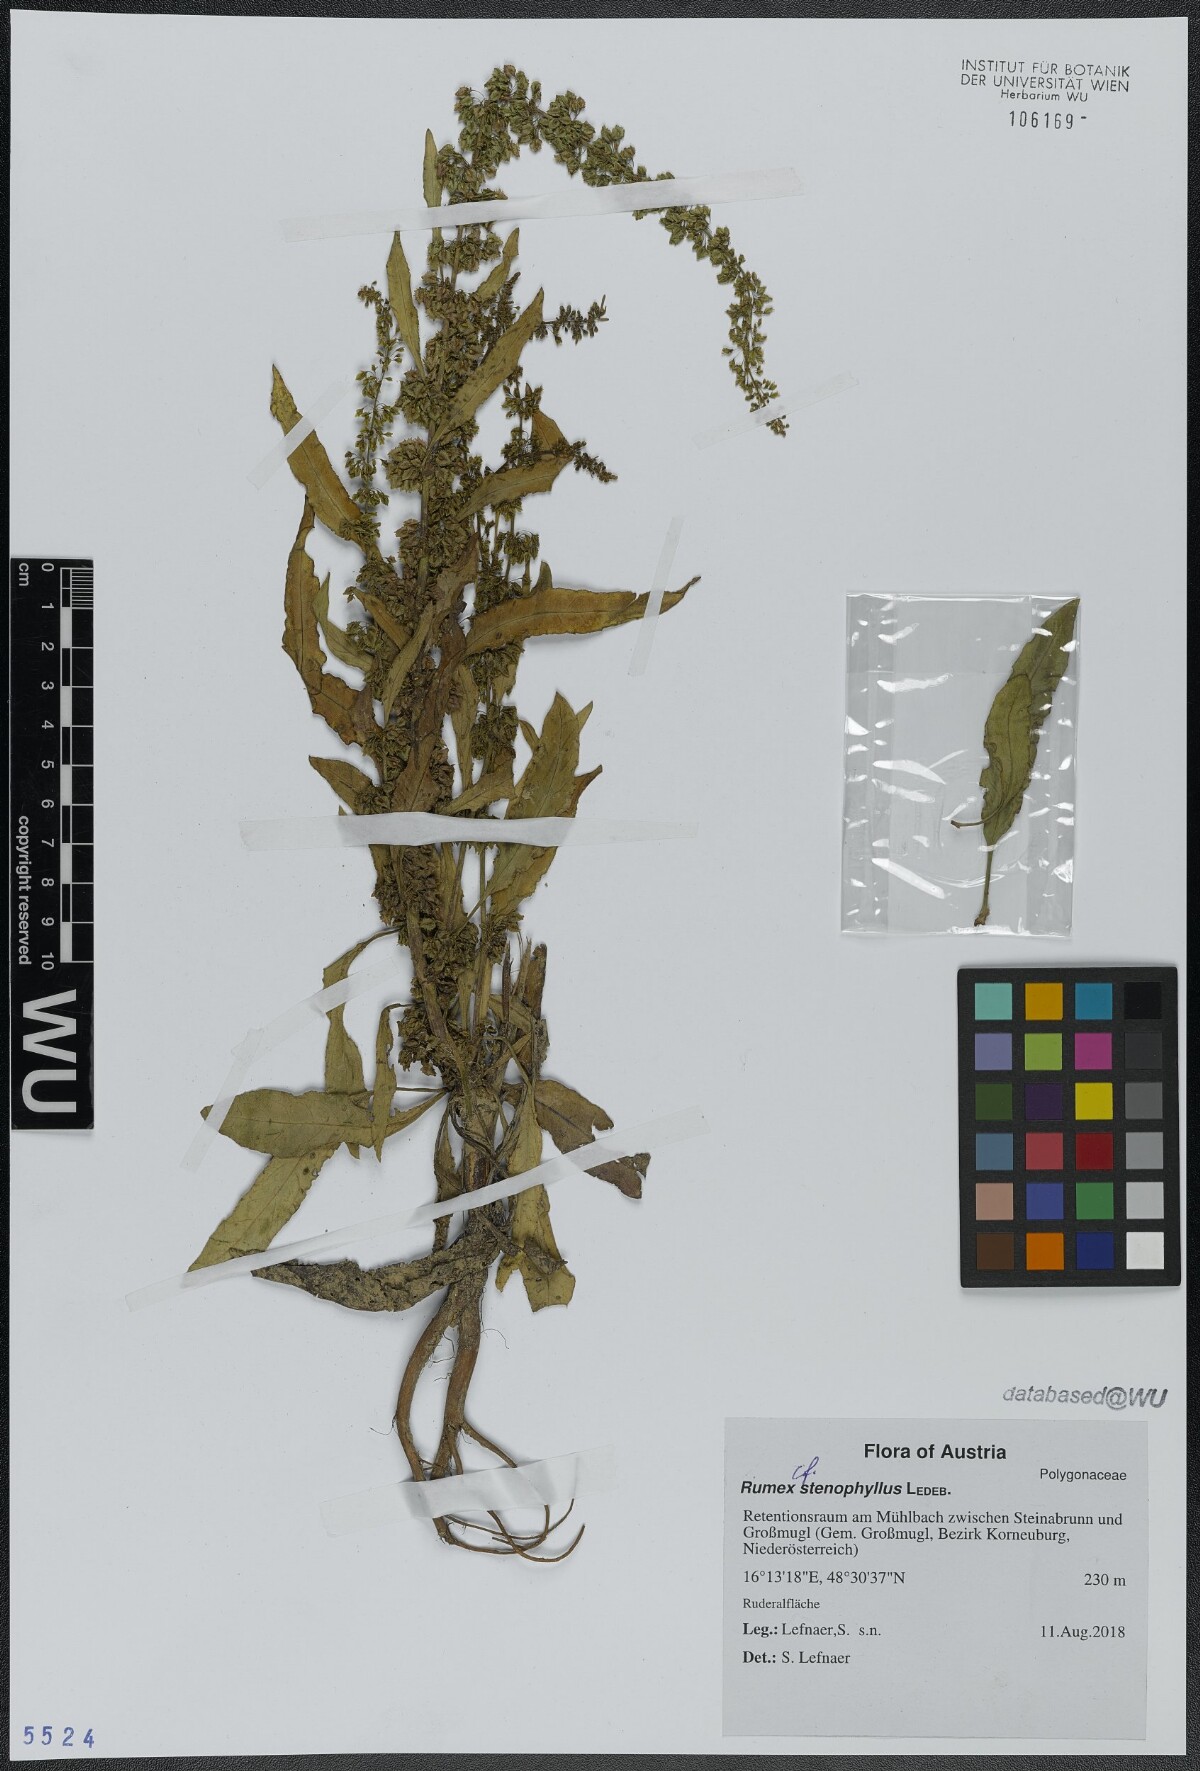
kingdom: Plantae
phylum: Tracheophyta
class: Magnoliopsida
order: Caryophyllales
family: Polygonaceae
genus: Rumex
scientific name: Rumex stenophyllus
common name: Narrowleaf dock
